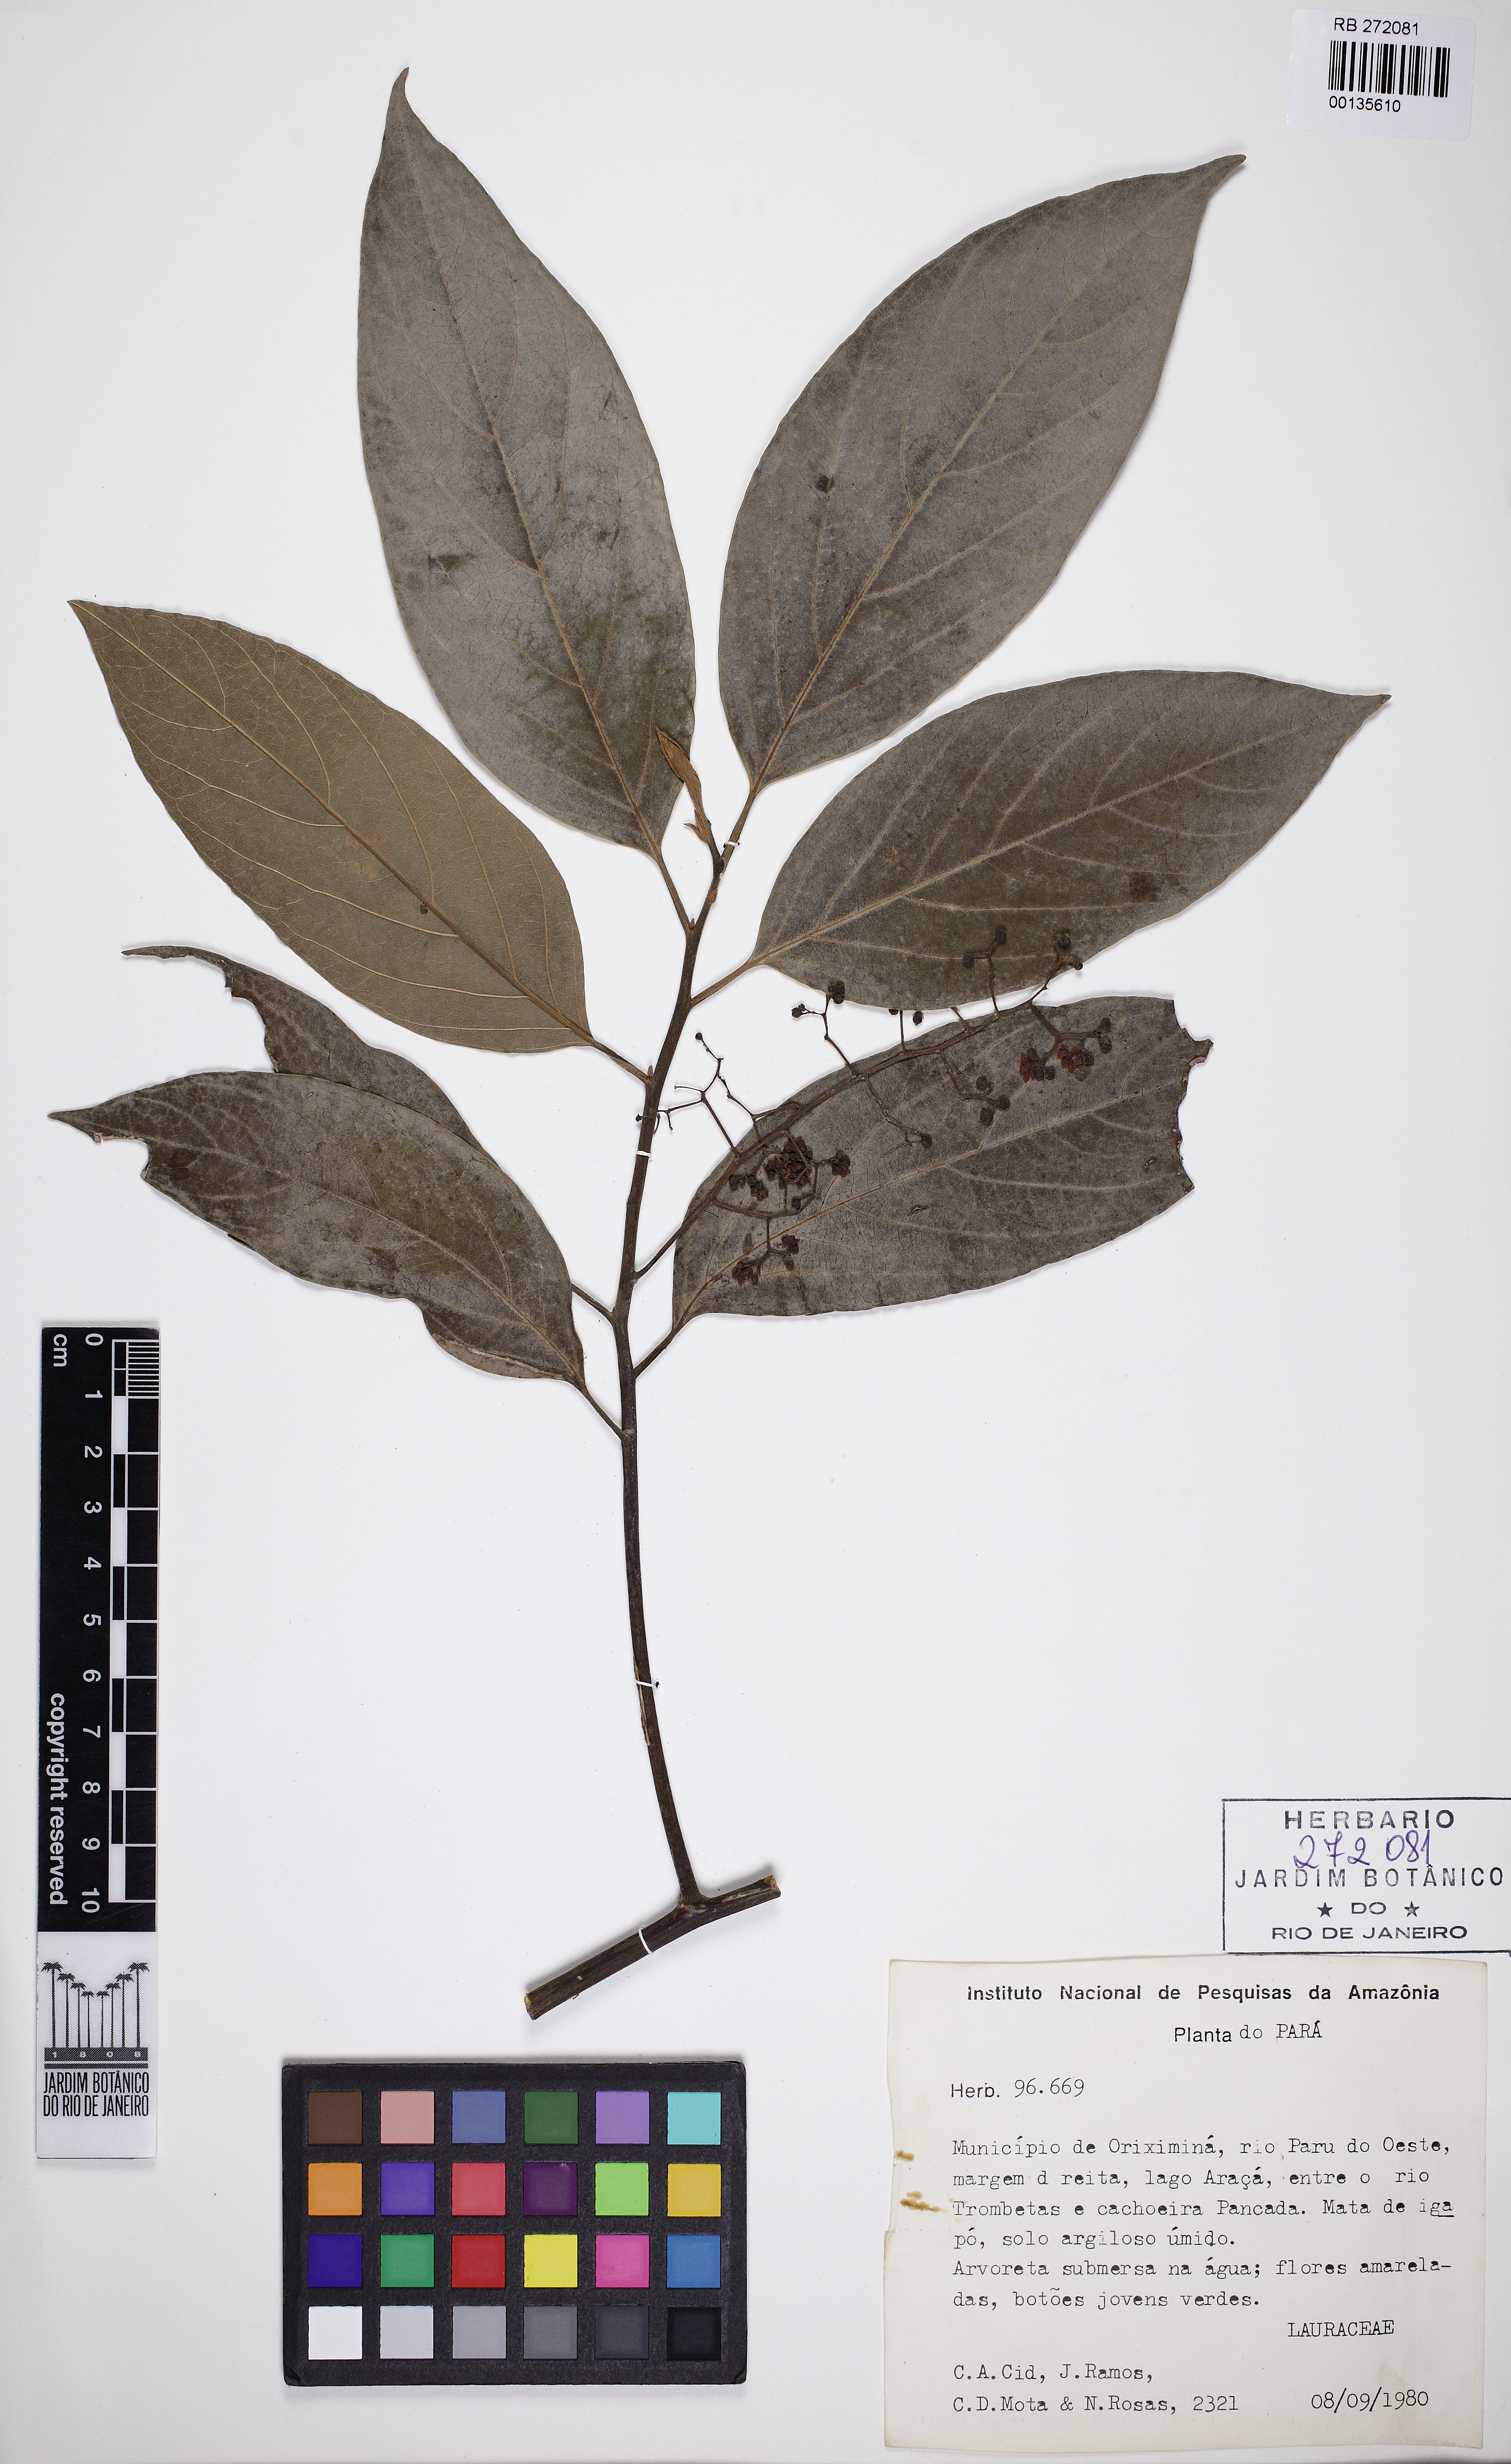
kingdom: Plantae
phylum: Tracheophyta
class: Magnoliopsida
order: Laurales
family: Lauraceae
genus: Endlicheria
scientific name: Endlicheria anomala
